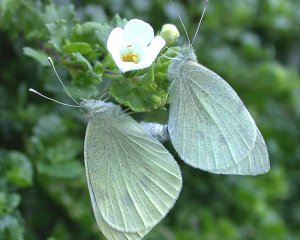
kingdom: Animalia
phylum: Arthropoda
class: Insecta
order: Lepidoptera
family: Pieridae
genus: Pieris
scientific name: Pieris rapae
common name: Cabbage White
